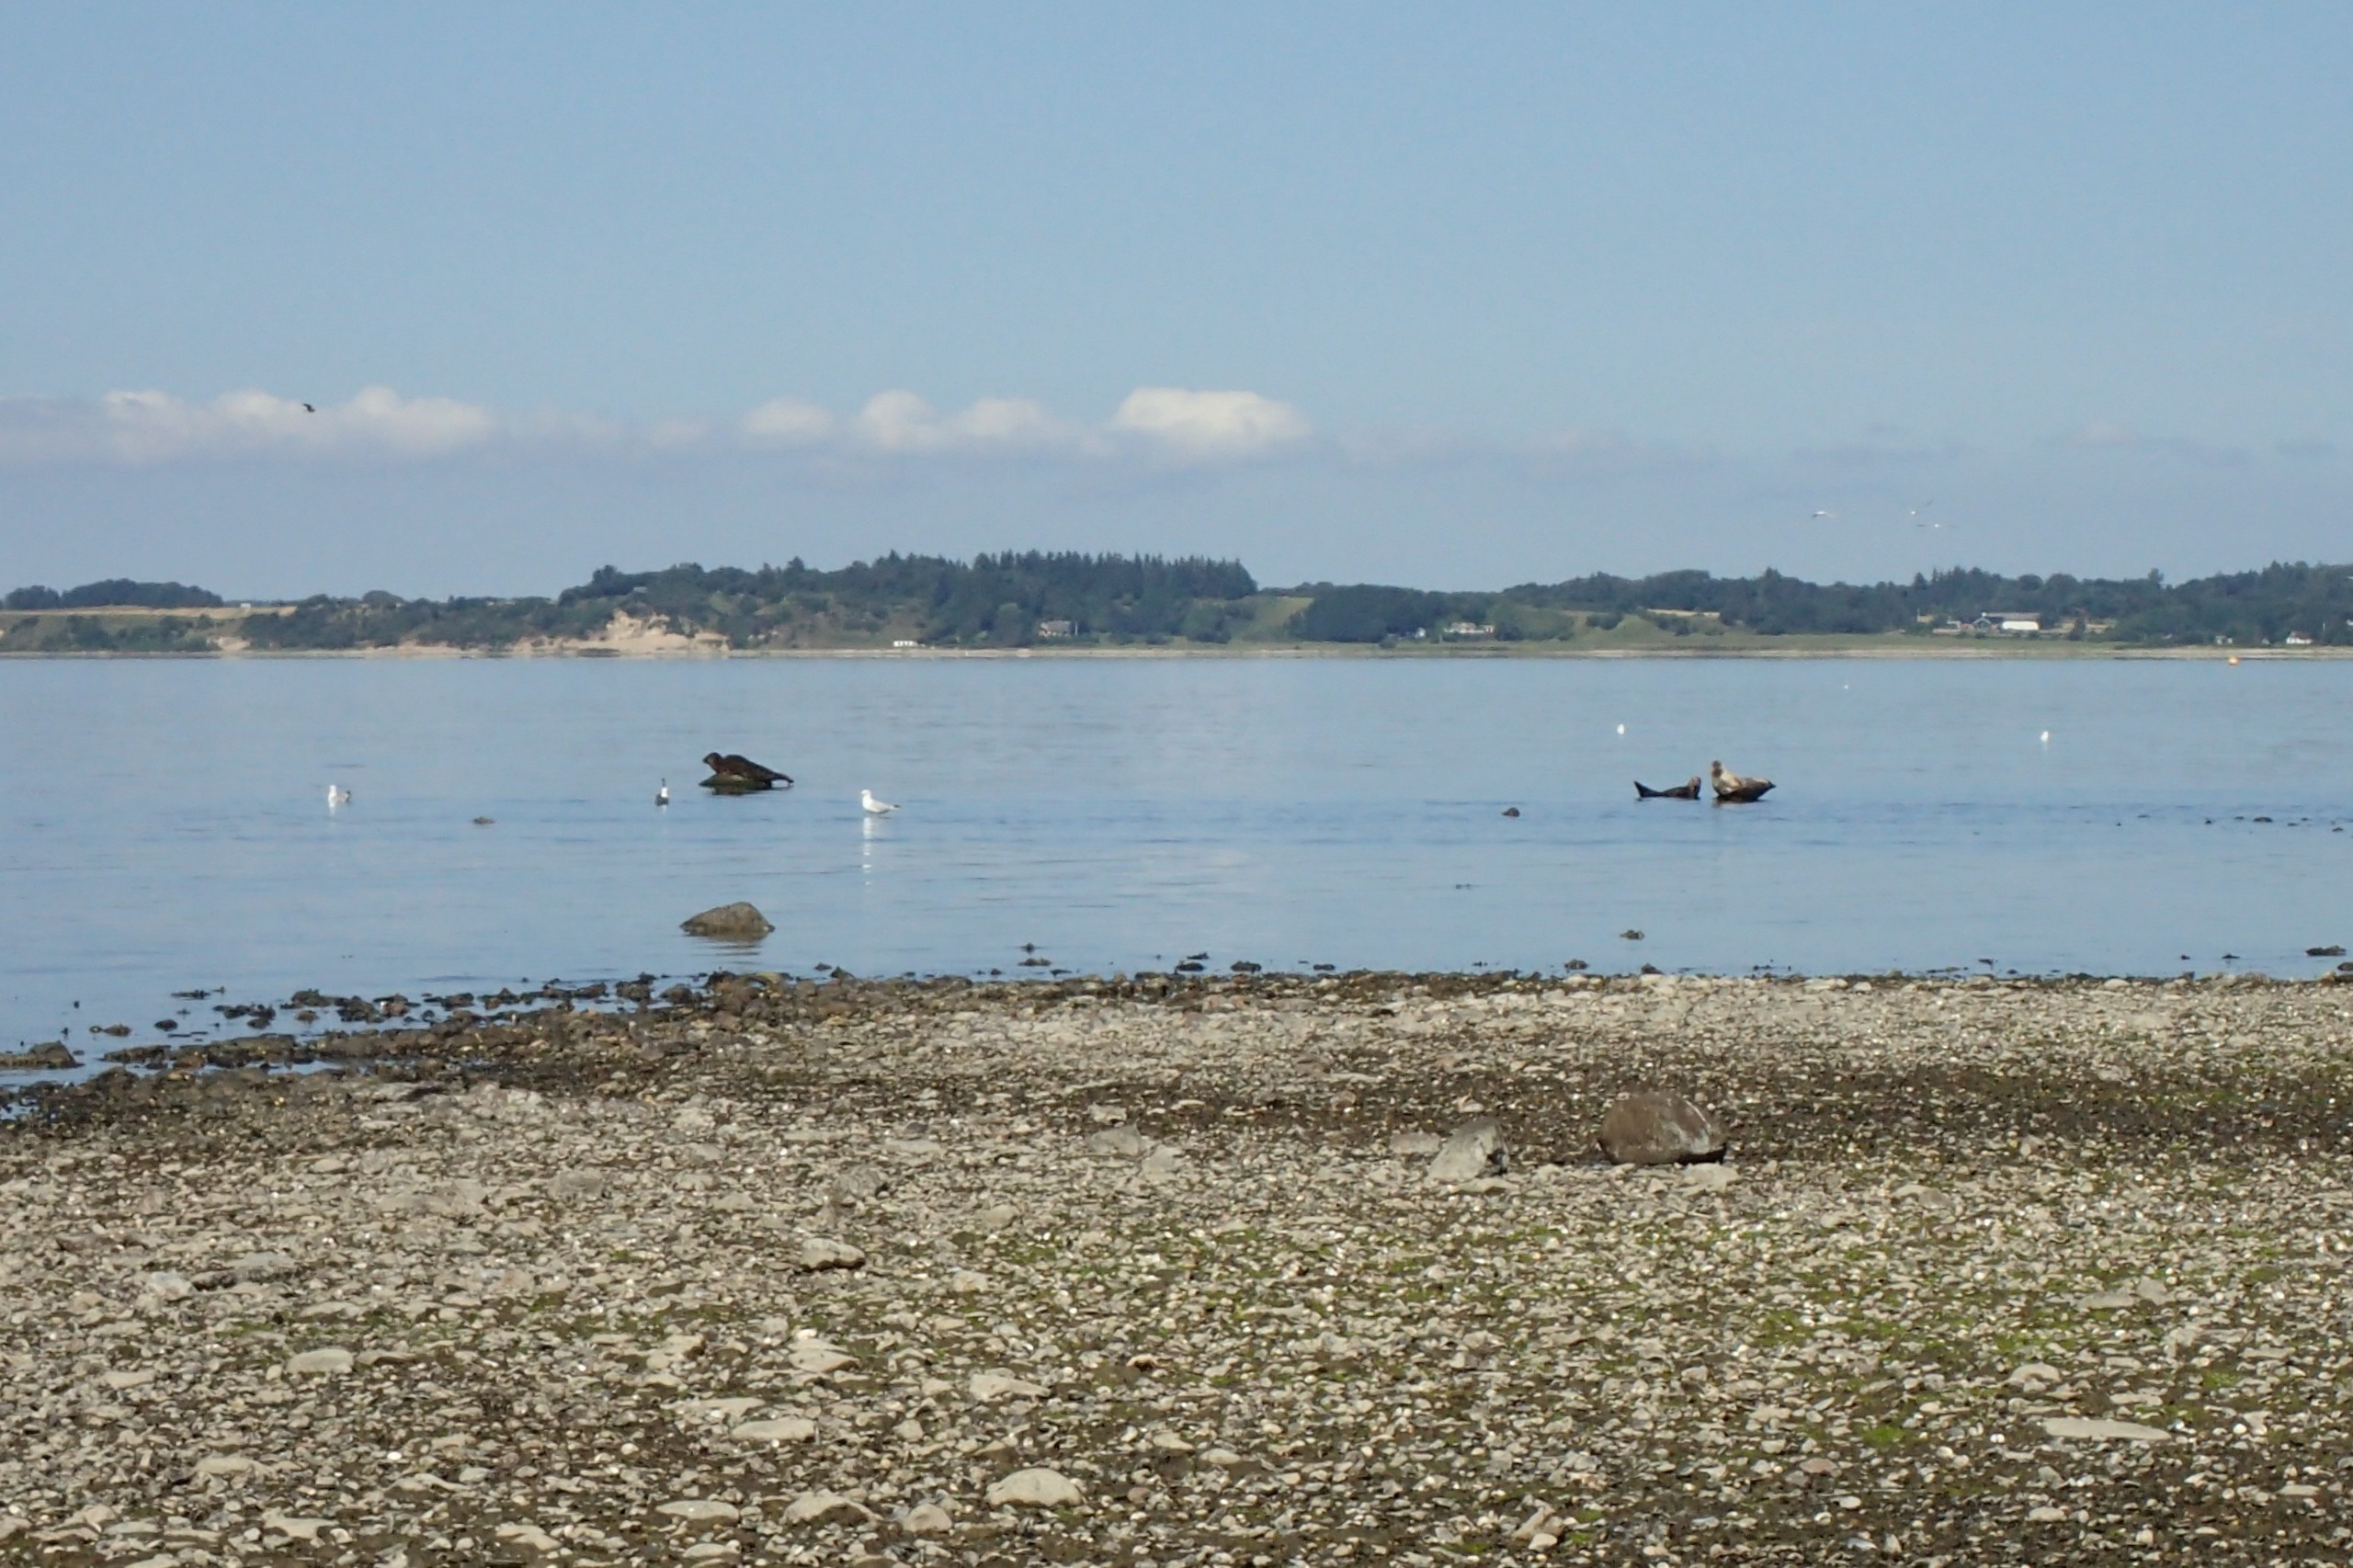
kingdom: Animalia
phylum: Chordata
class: Mammalia
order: Carnivora
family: Phocidae
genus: Phoca
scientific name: Phoca vitulina
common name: Spættet sæl
